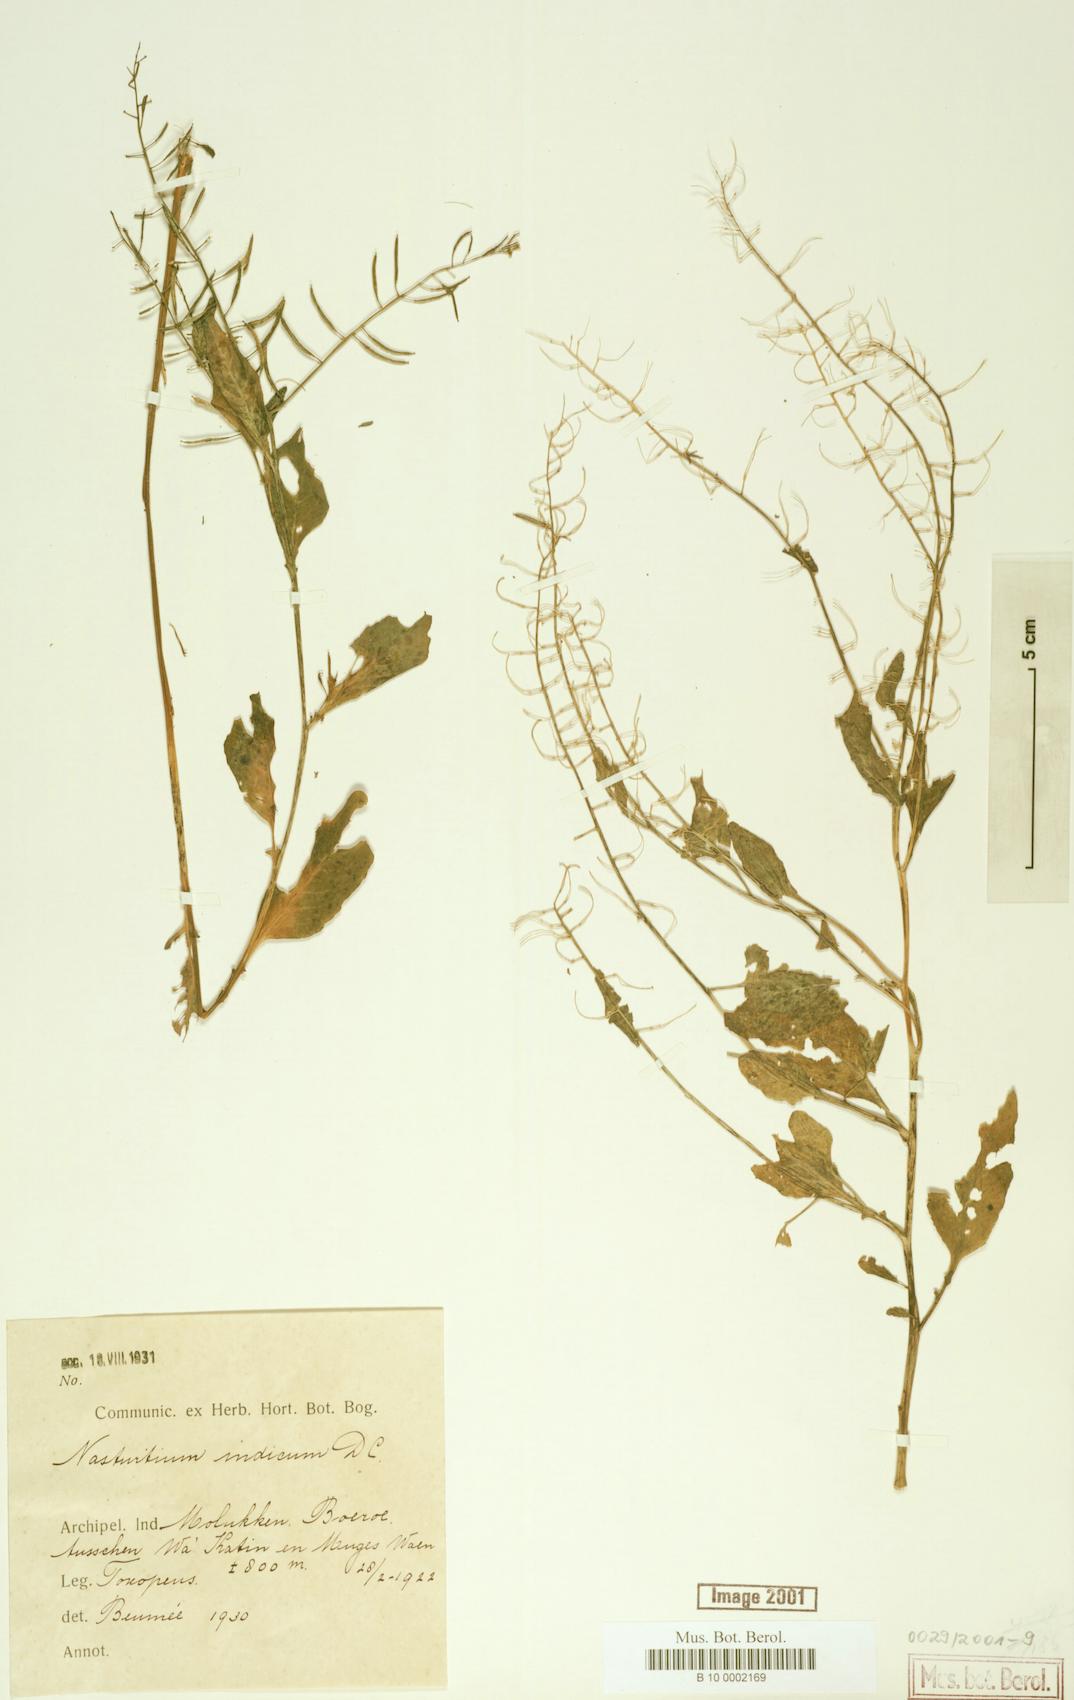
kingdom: Plantae
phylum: Tracheophyta
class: Magnoliopsida
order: Brassicales
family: Brassicaceae
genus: Rorippa
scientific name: Rorippa indica
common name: Variableleaf yellowcress
